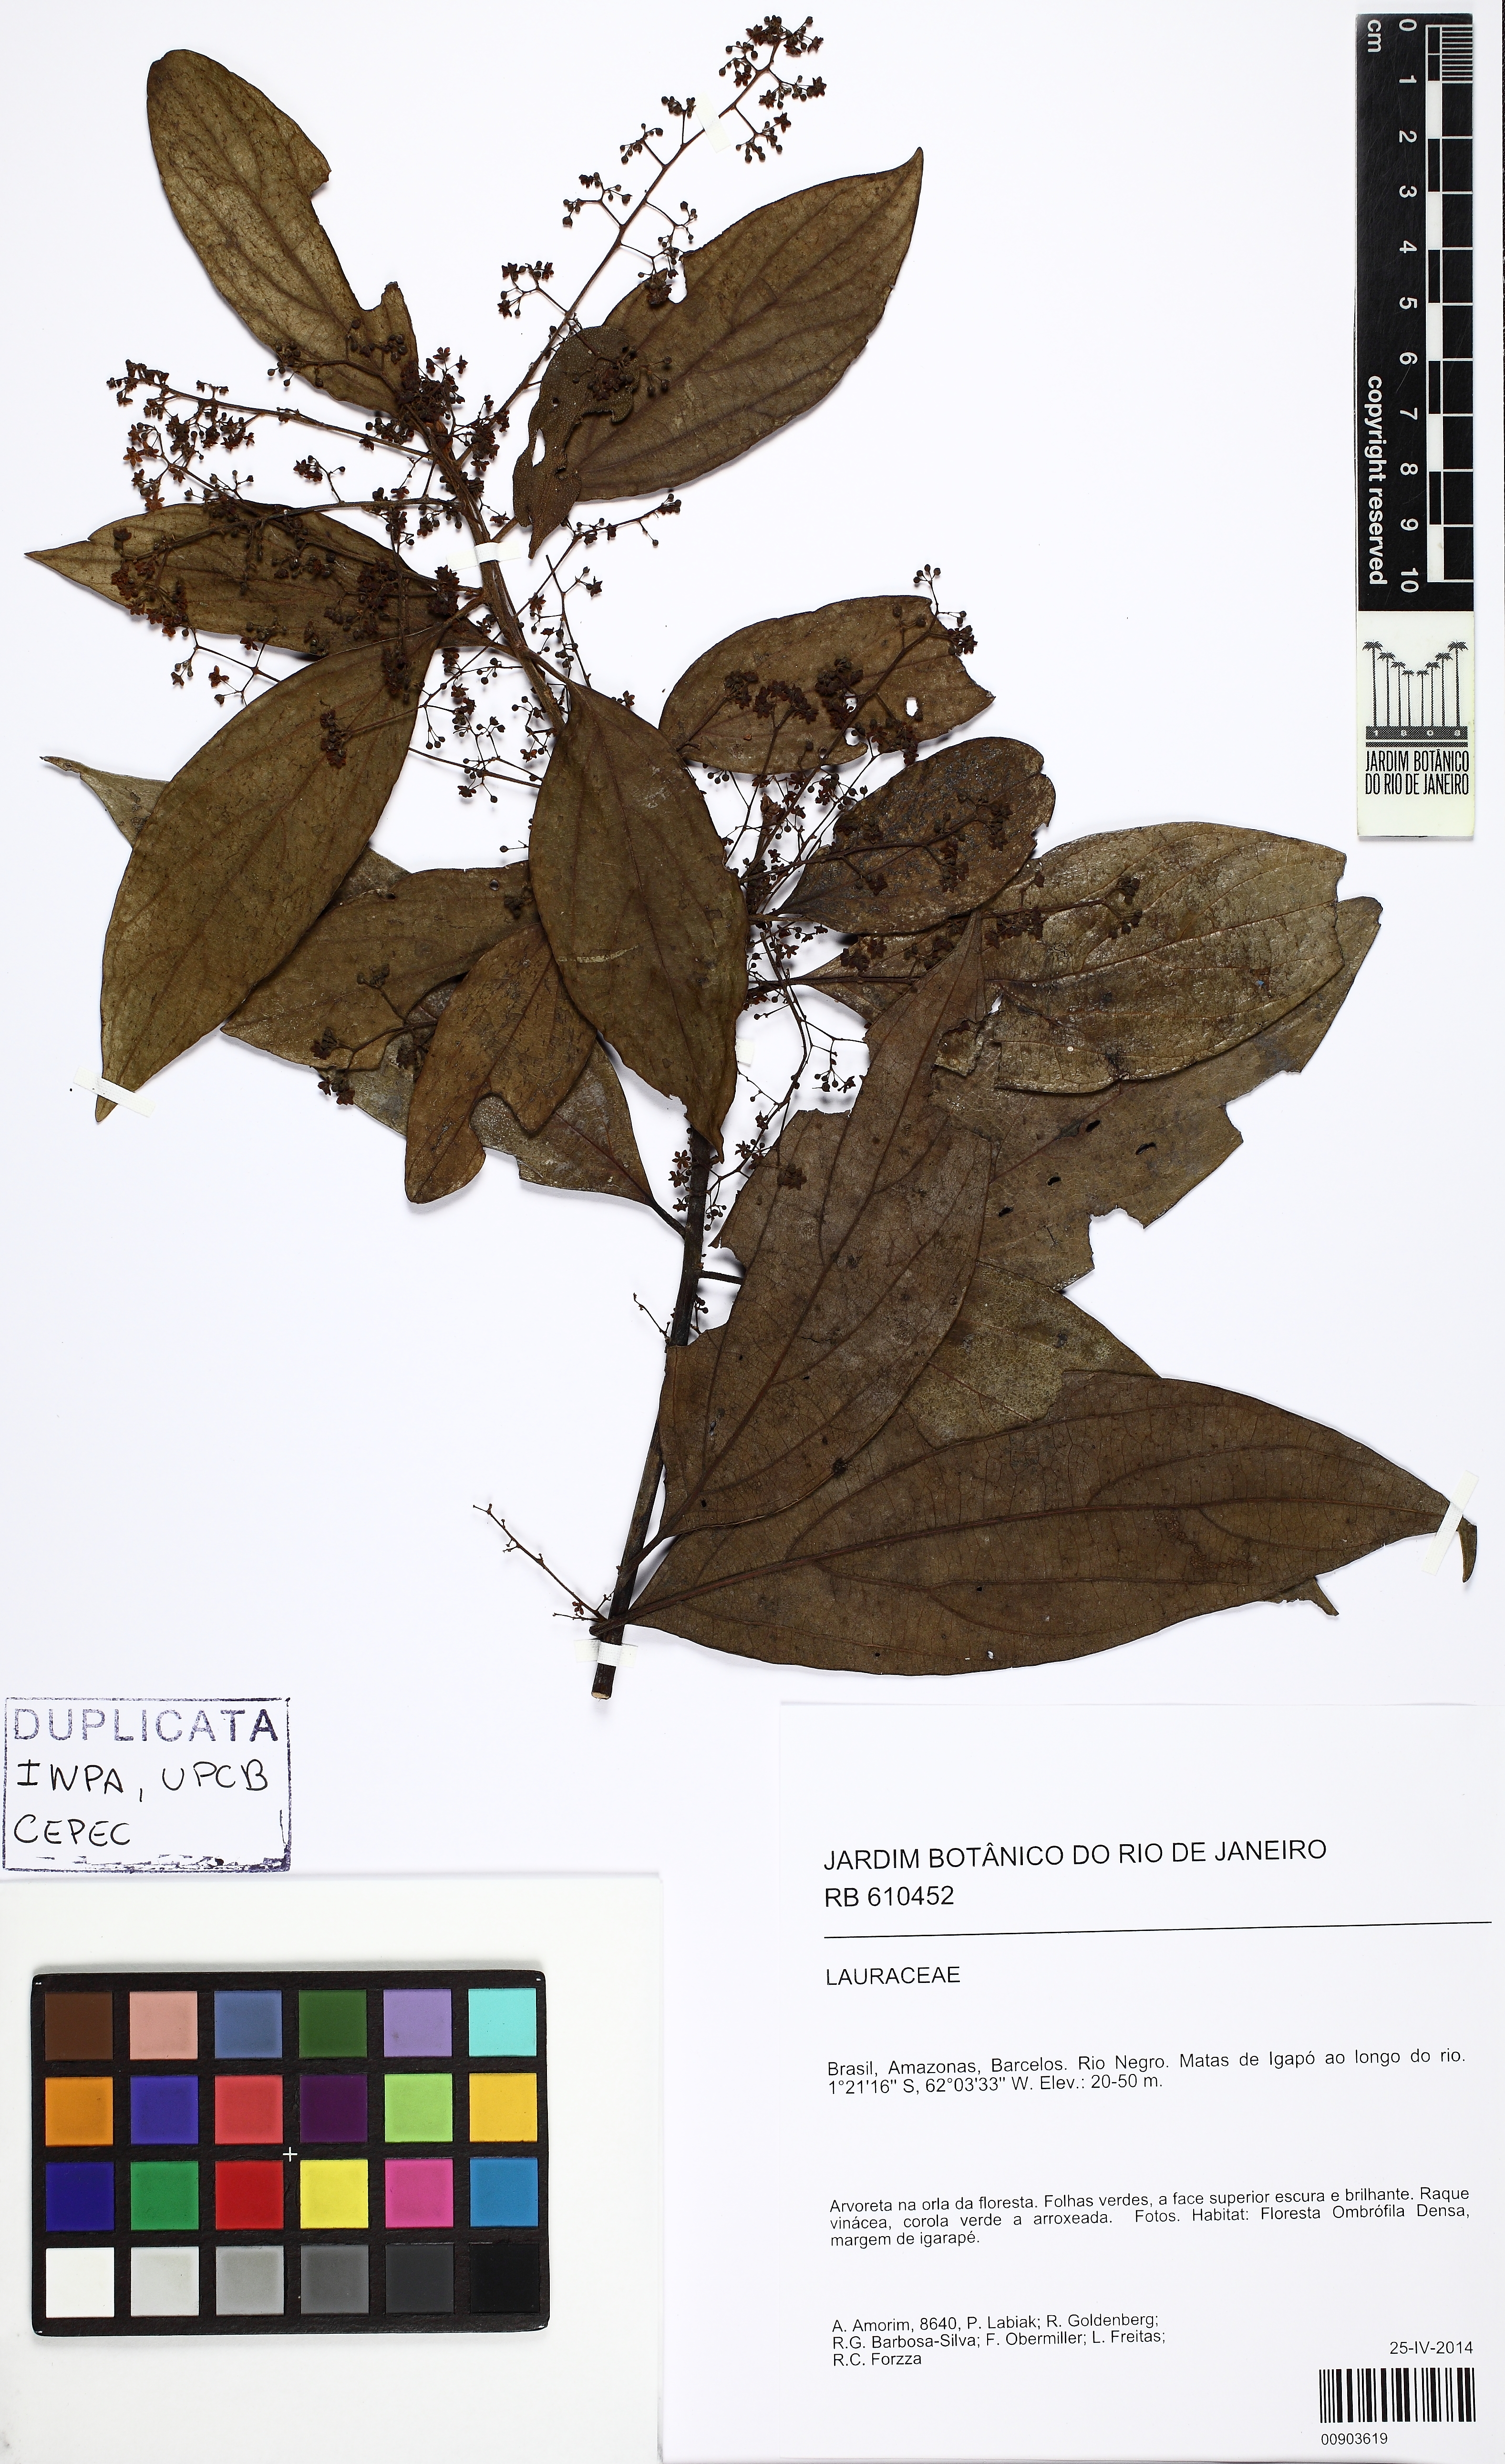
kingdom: Plantae
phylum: Tracheophyta
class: Magnoliopsida
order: Laurales
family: Lauraceae
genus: Endlicheria
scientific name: Endlicheria
